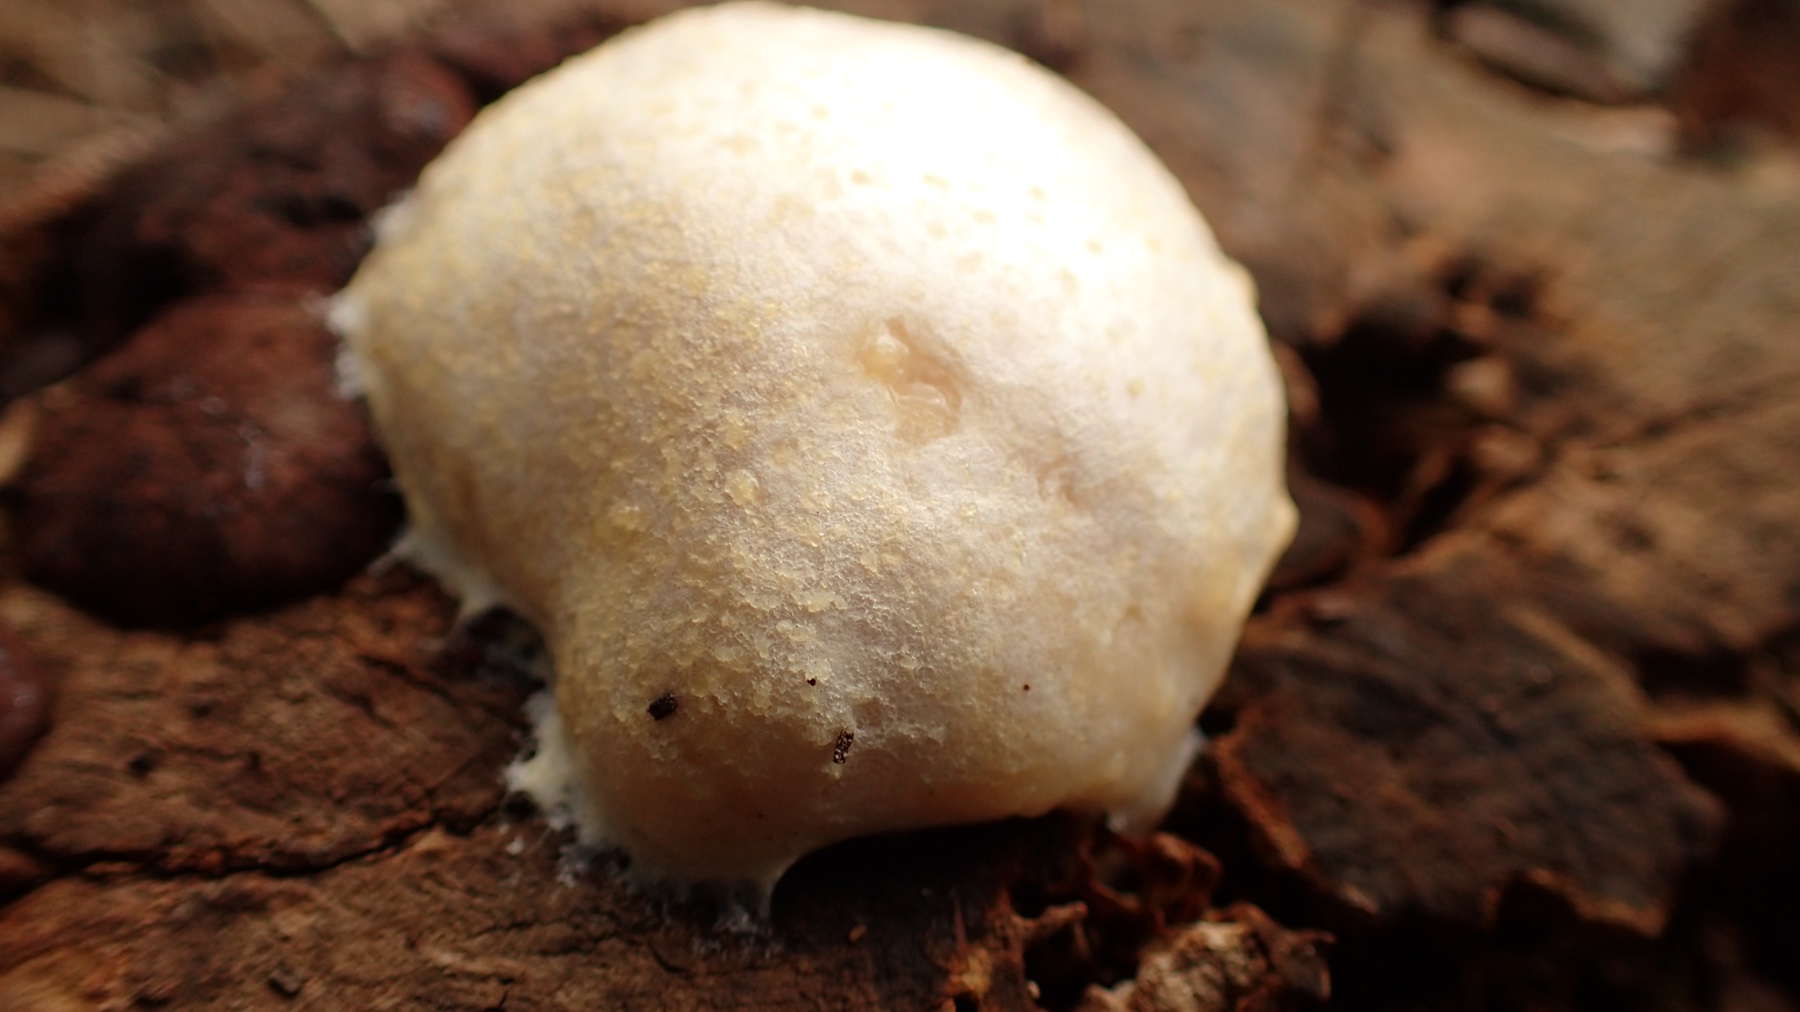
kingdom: Protozoa
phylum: Mycetozoa
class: Myxomycetes
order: Cribrariales
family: Tubiferaceae
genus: Reticularia
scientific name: Reticularia lycoperdon
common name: skinnende støvpude
